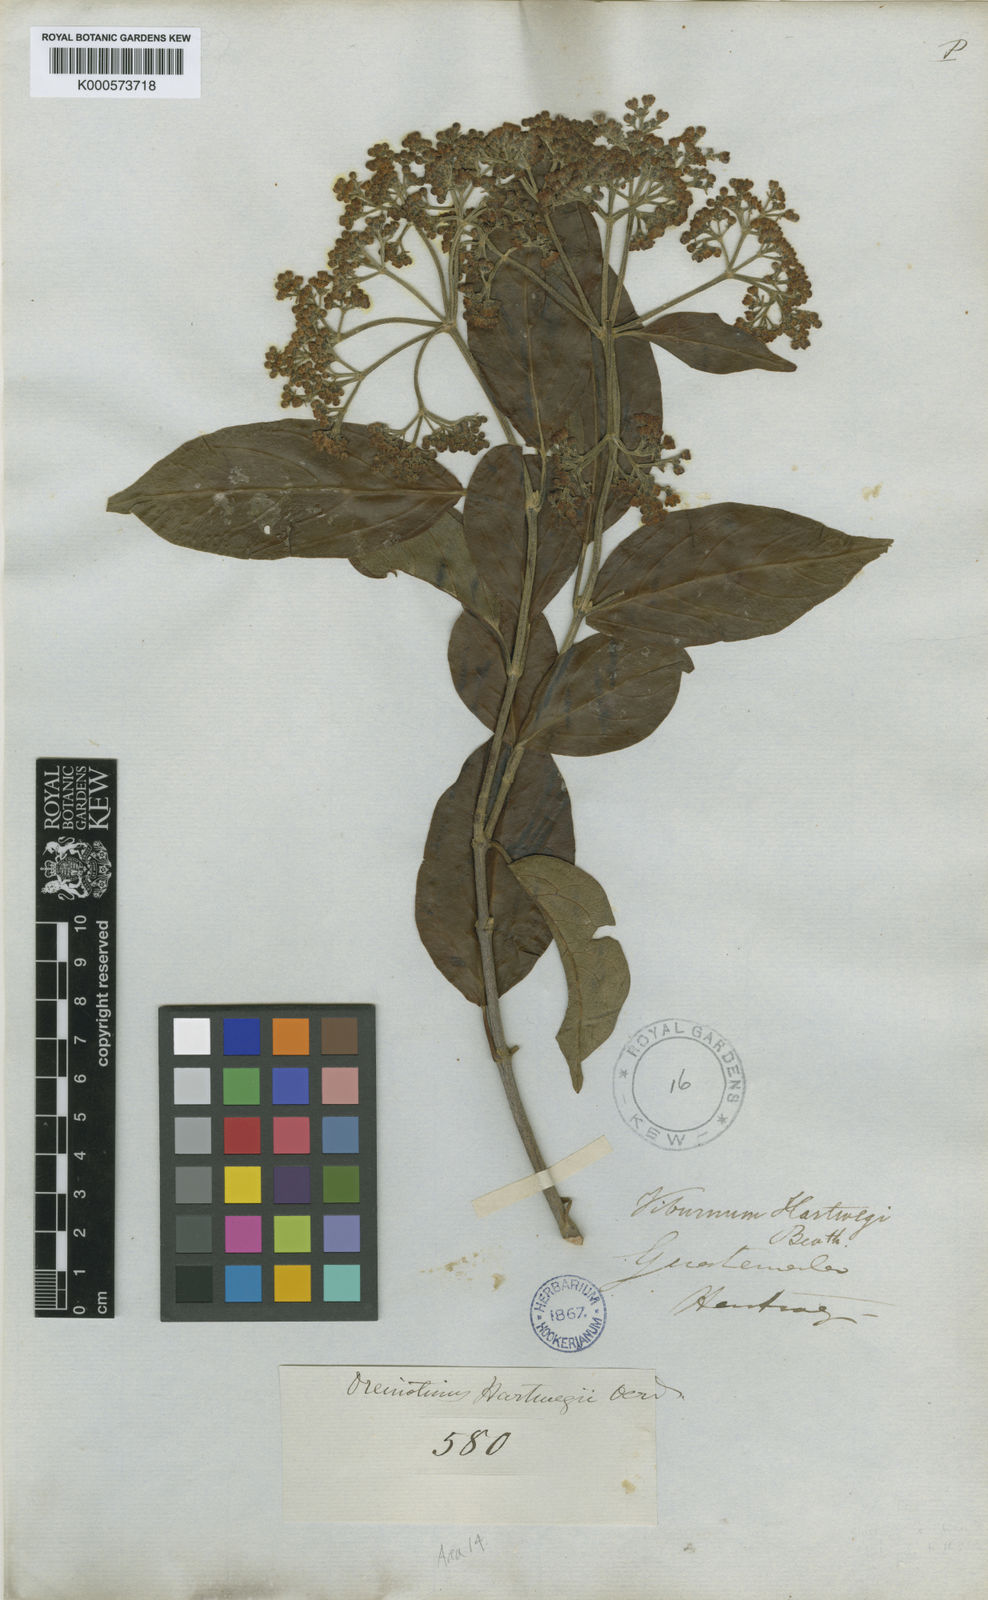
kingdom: Plantae
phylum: Tracheophyta
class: Magnoliopsida
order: Dipsacales
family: Viburnaceae
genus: Viburnum
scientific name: Viburnum hartwegii
